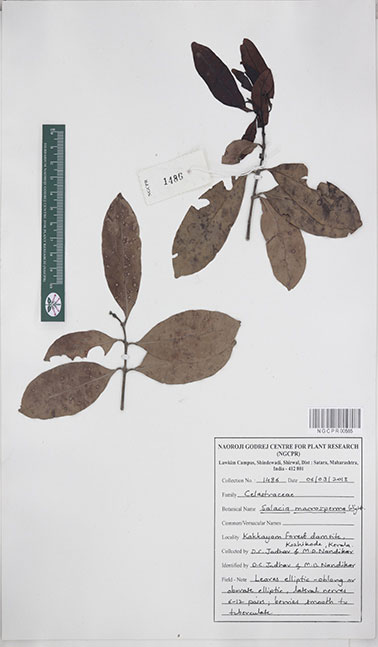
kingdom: Plantae
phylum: Tracheophyta
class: Magnoliopsida
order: Celastrales
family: Celastraceae
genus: Salacia
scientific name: Salacia macrosperma
